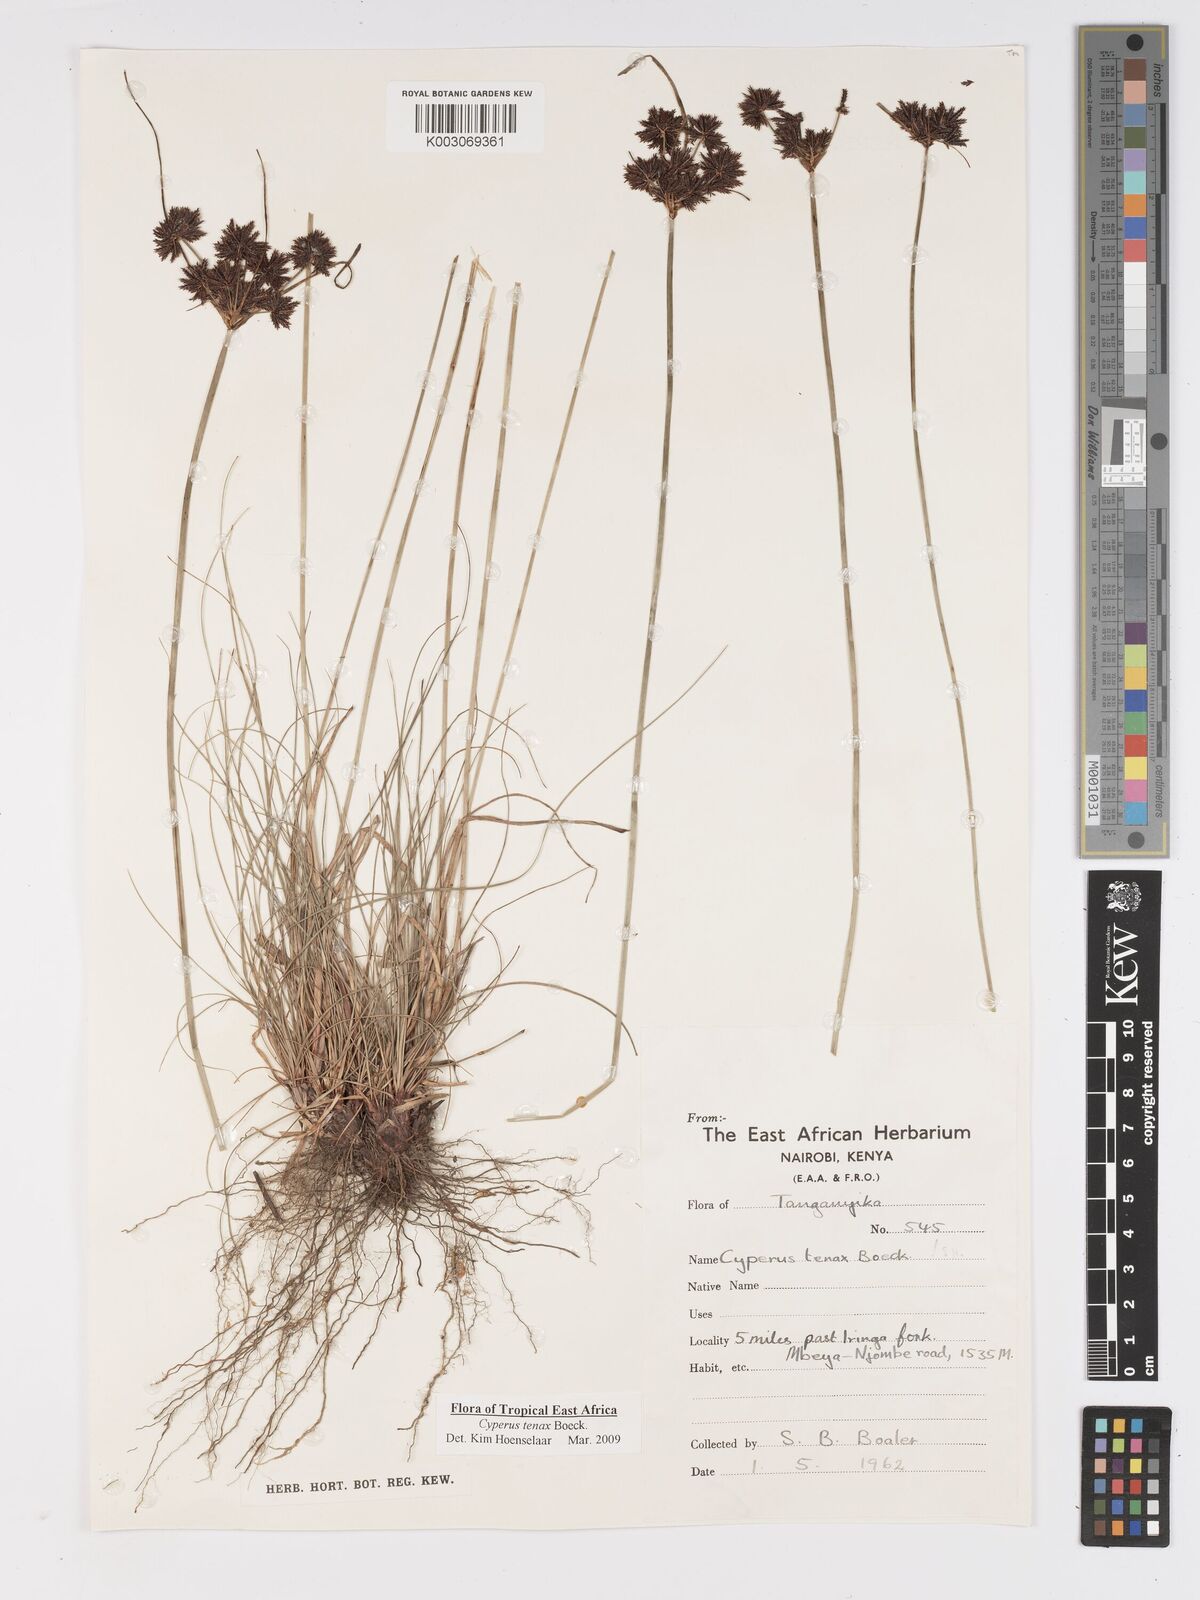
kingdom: Plantae
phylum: Tracheophyta
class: Liliopsida
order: Poales
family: Cyperaceae
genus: Cyperus
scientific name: Cyperus tenax
